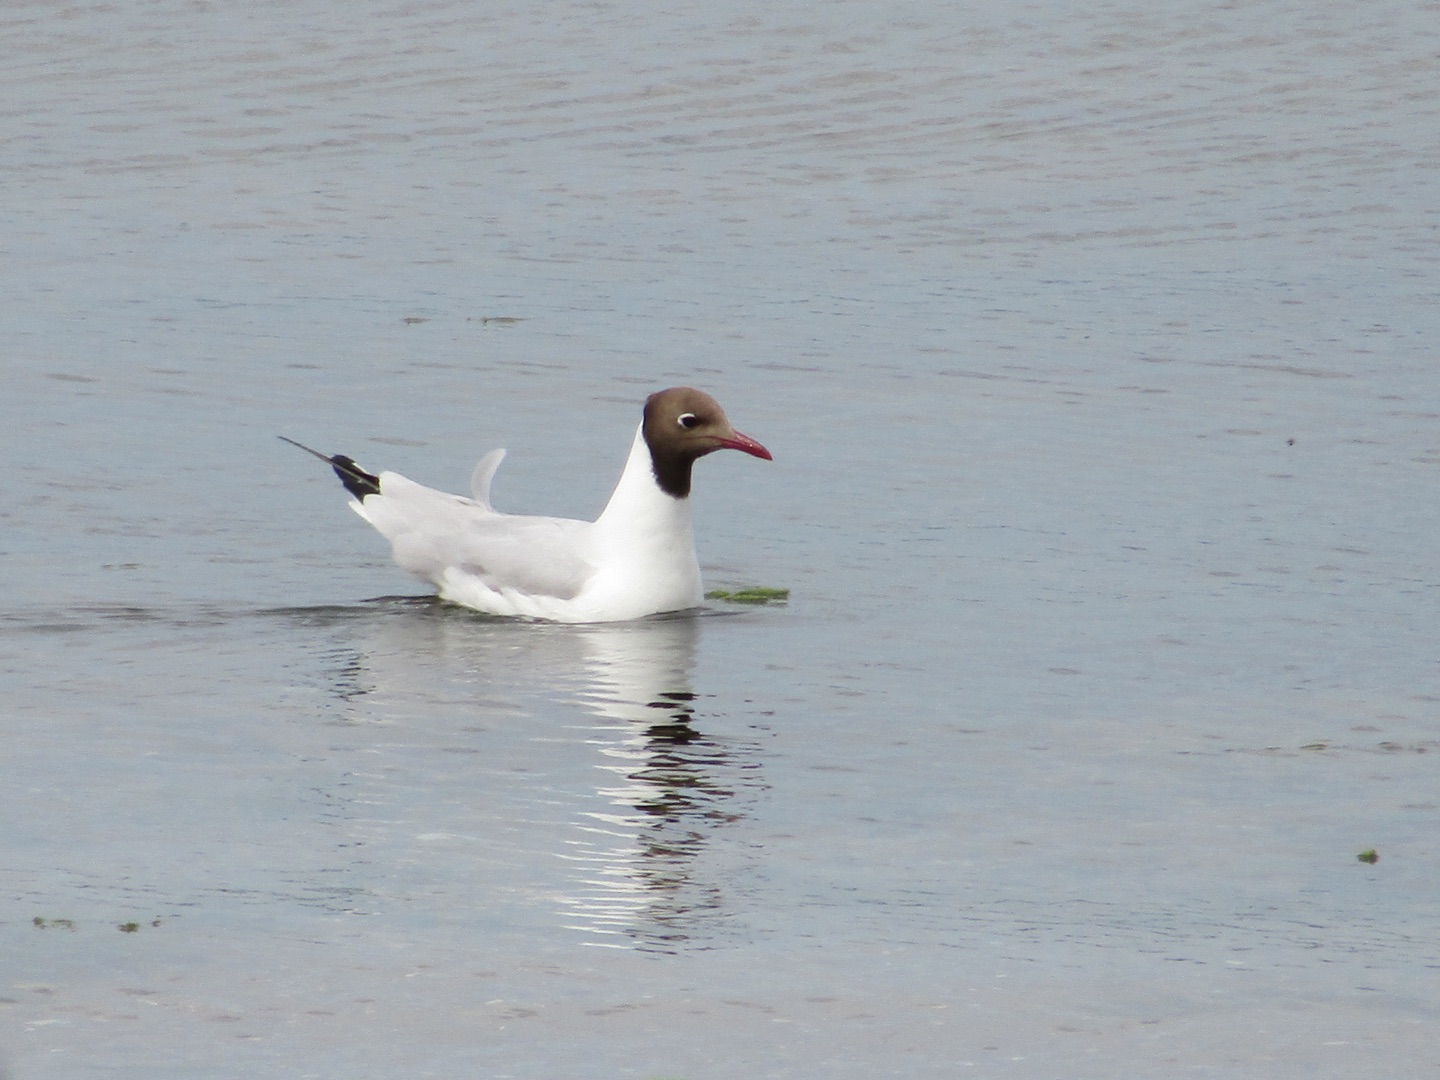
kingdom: Animalia
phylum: Chordata
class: Aves
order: Charadriiformes
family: Laridae
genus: Chroicocephalus
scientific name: Chroicocephalus ridibundus
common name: Hættemåge
